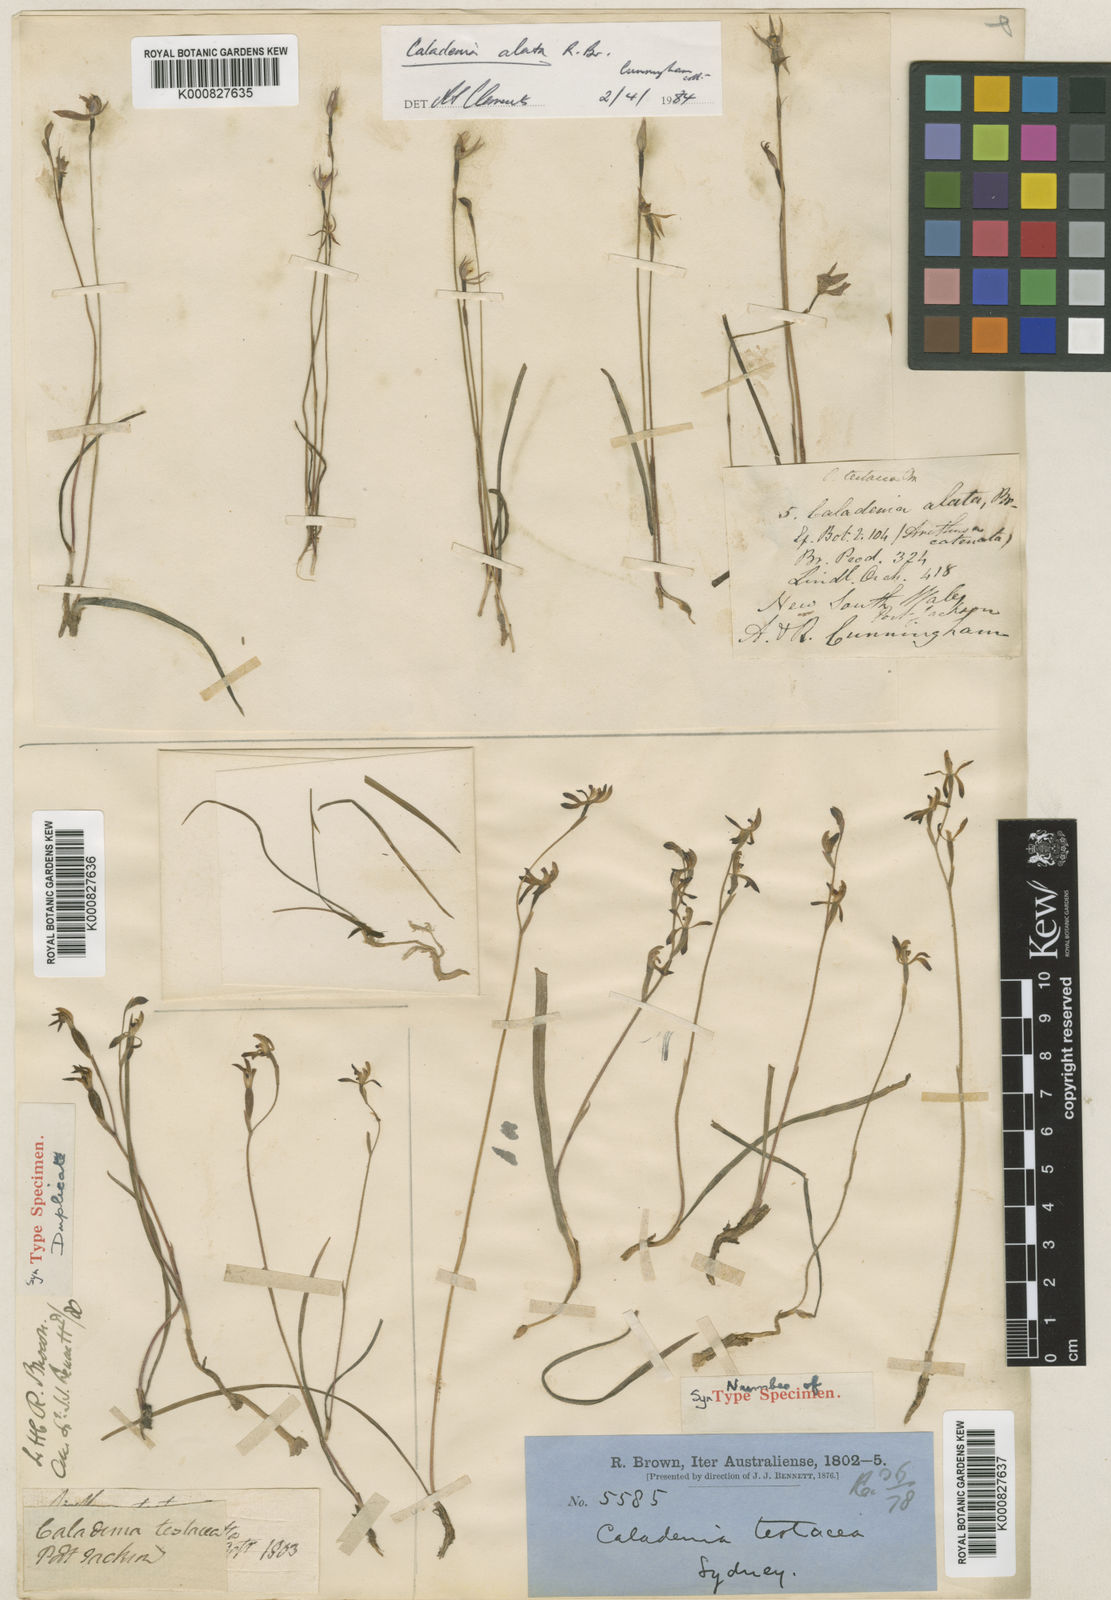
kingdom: Plantae
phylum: Tracheophyta
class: Liliopsida
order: Asparagales
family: Orchidaceae
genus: Caladenia
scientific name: Caladenia testacea
